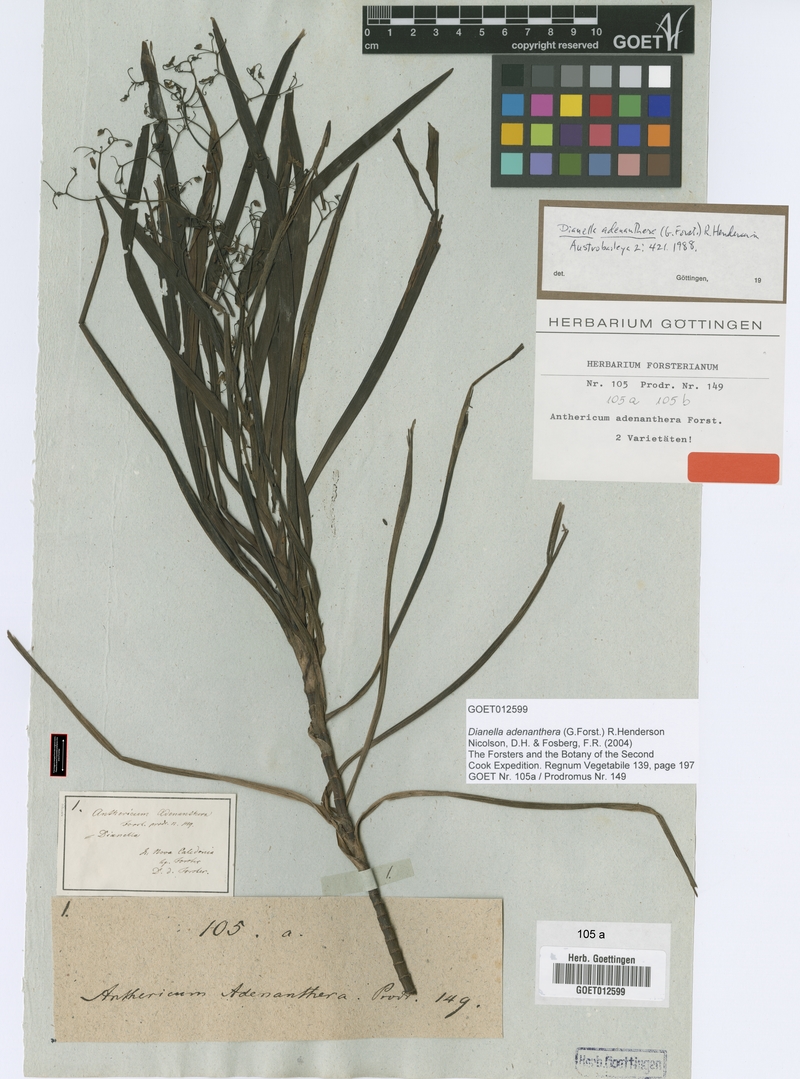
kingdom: Plantae
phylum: Tracheophyta
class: Liliopsida
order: Asparagales
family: Asphodelaceae
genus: Dianella
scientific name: Dianella adenanthera
